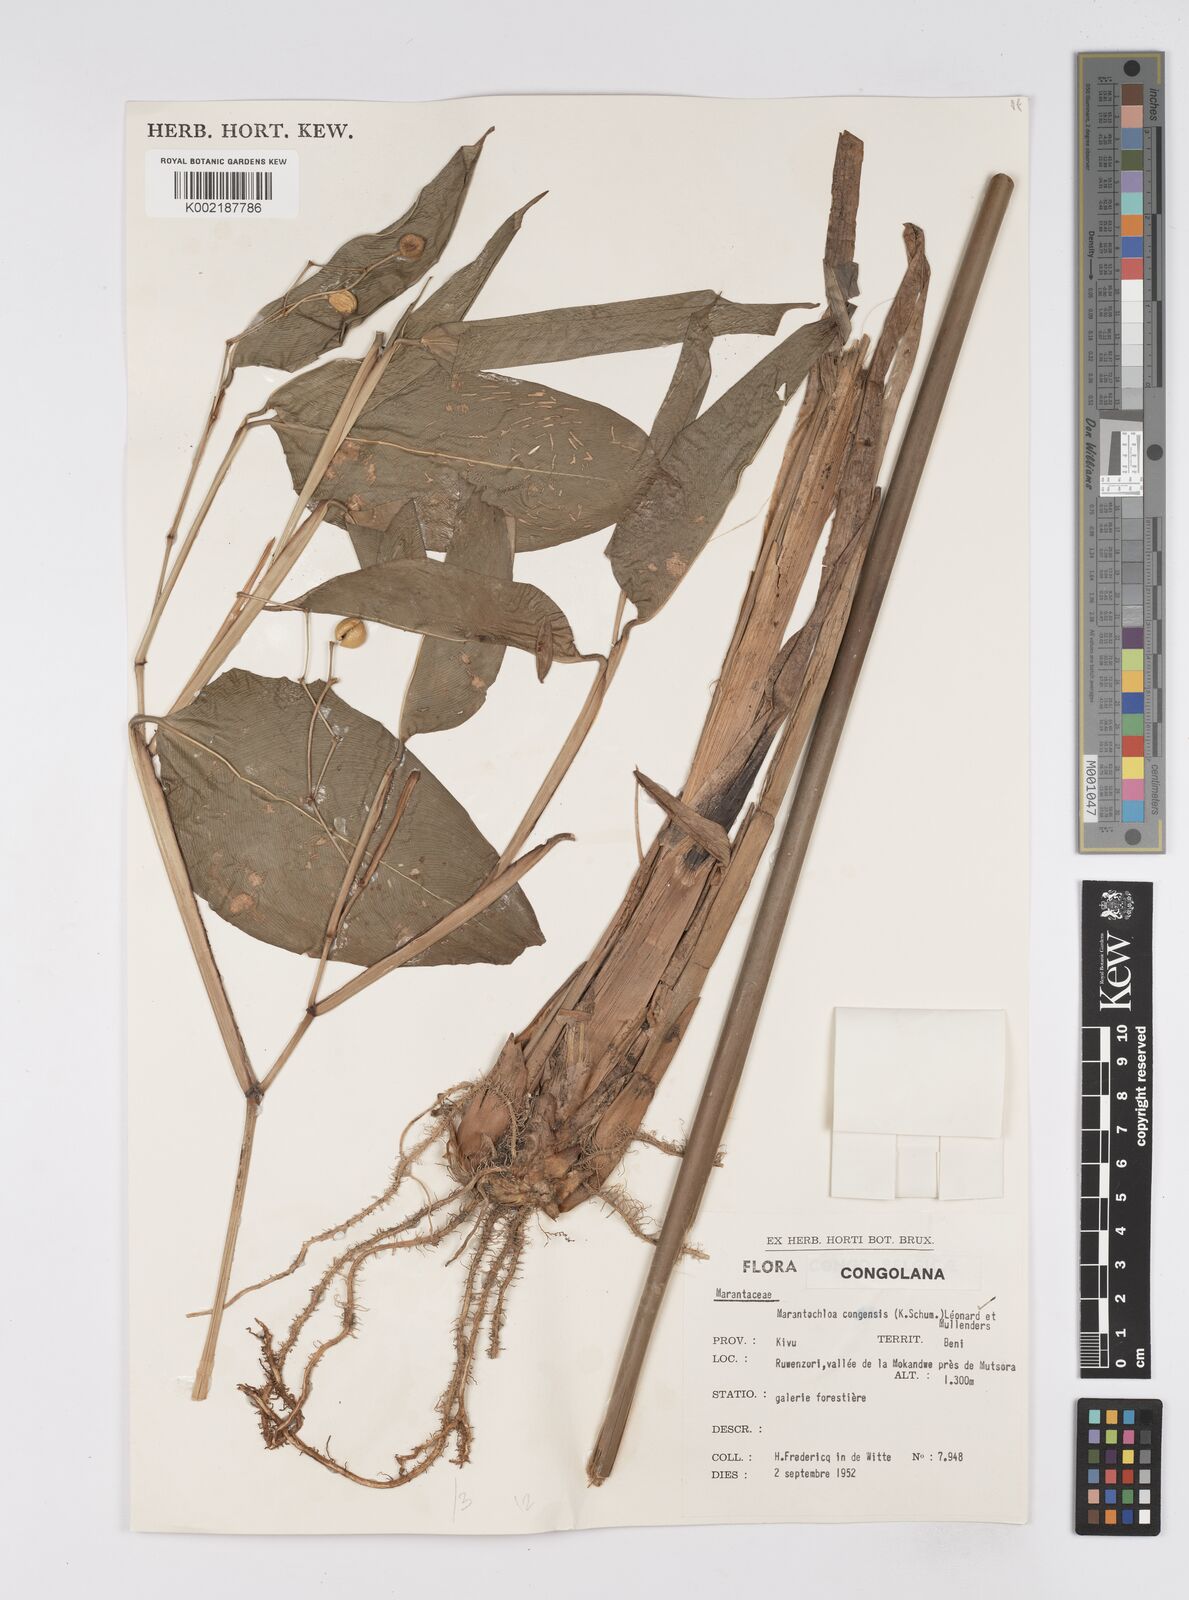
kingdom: Plantae
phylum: Tracheophyta
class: Liliopsida
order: Zingiberales
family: Marantaceae
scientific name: Marantaceae
